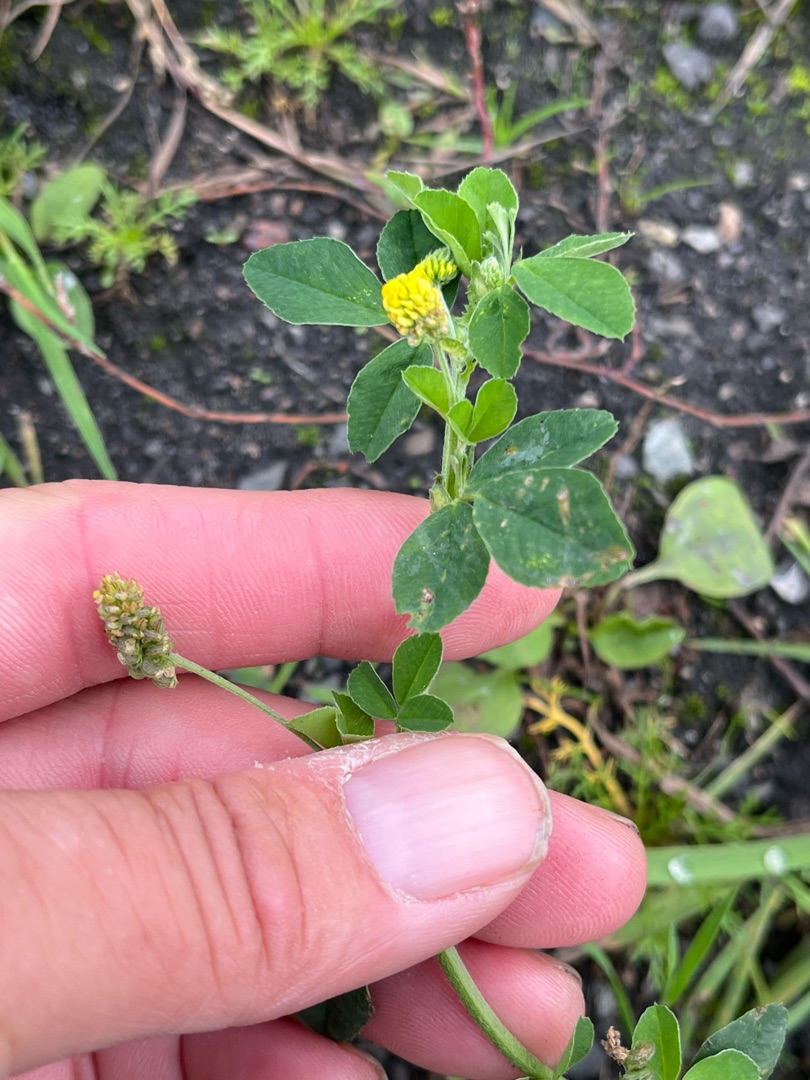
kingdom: Plantae
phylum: Tracheophyta
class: Magnoliopsida
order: Fabales
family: Fabaceae
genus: Medicago
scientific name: Medicago lupulina
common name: Humle-sneglebælg
